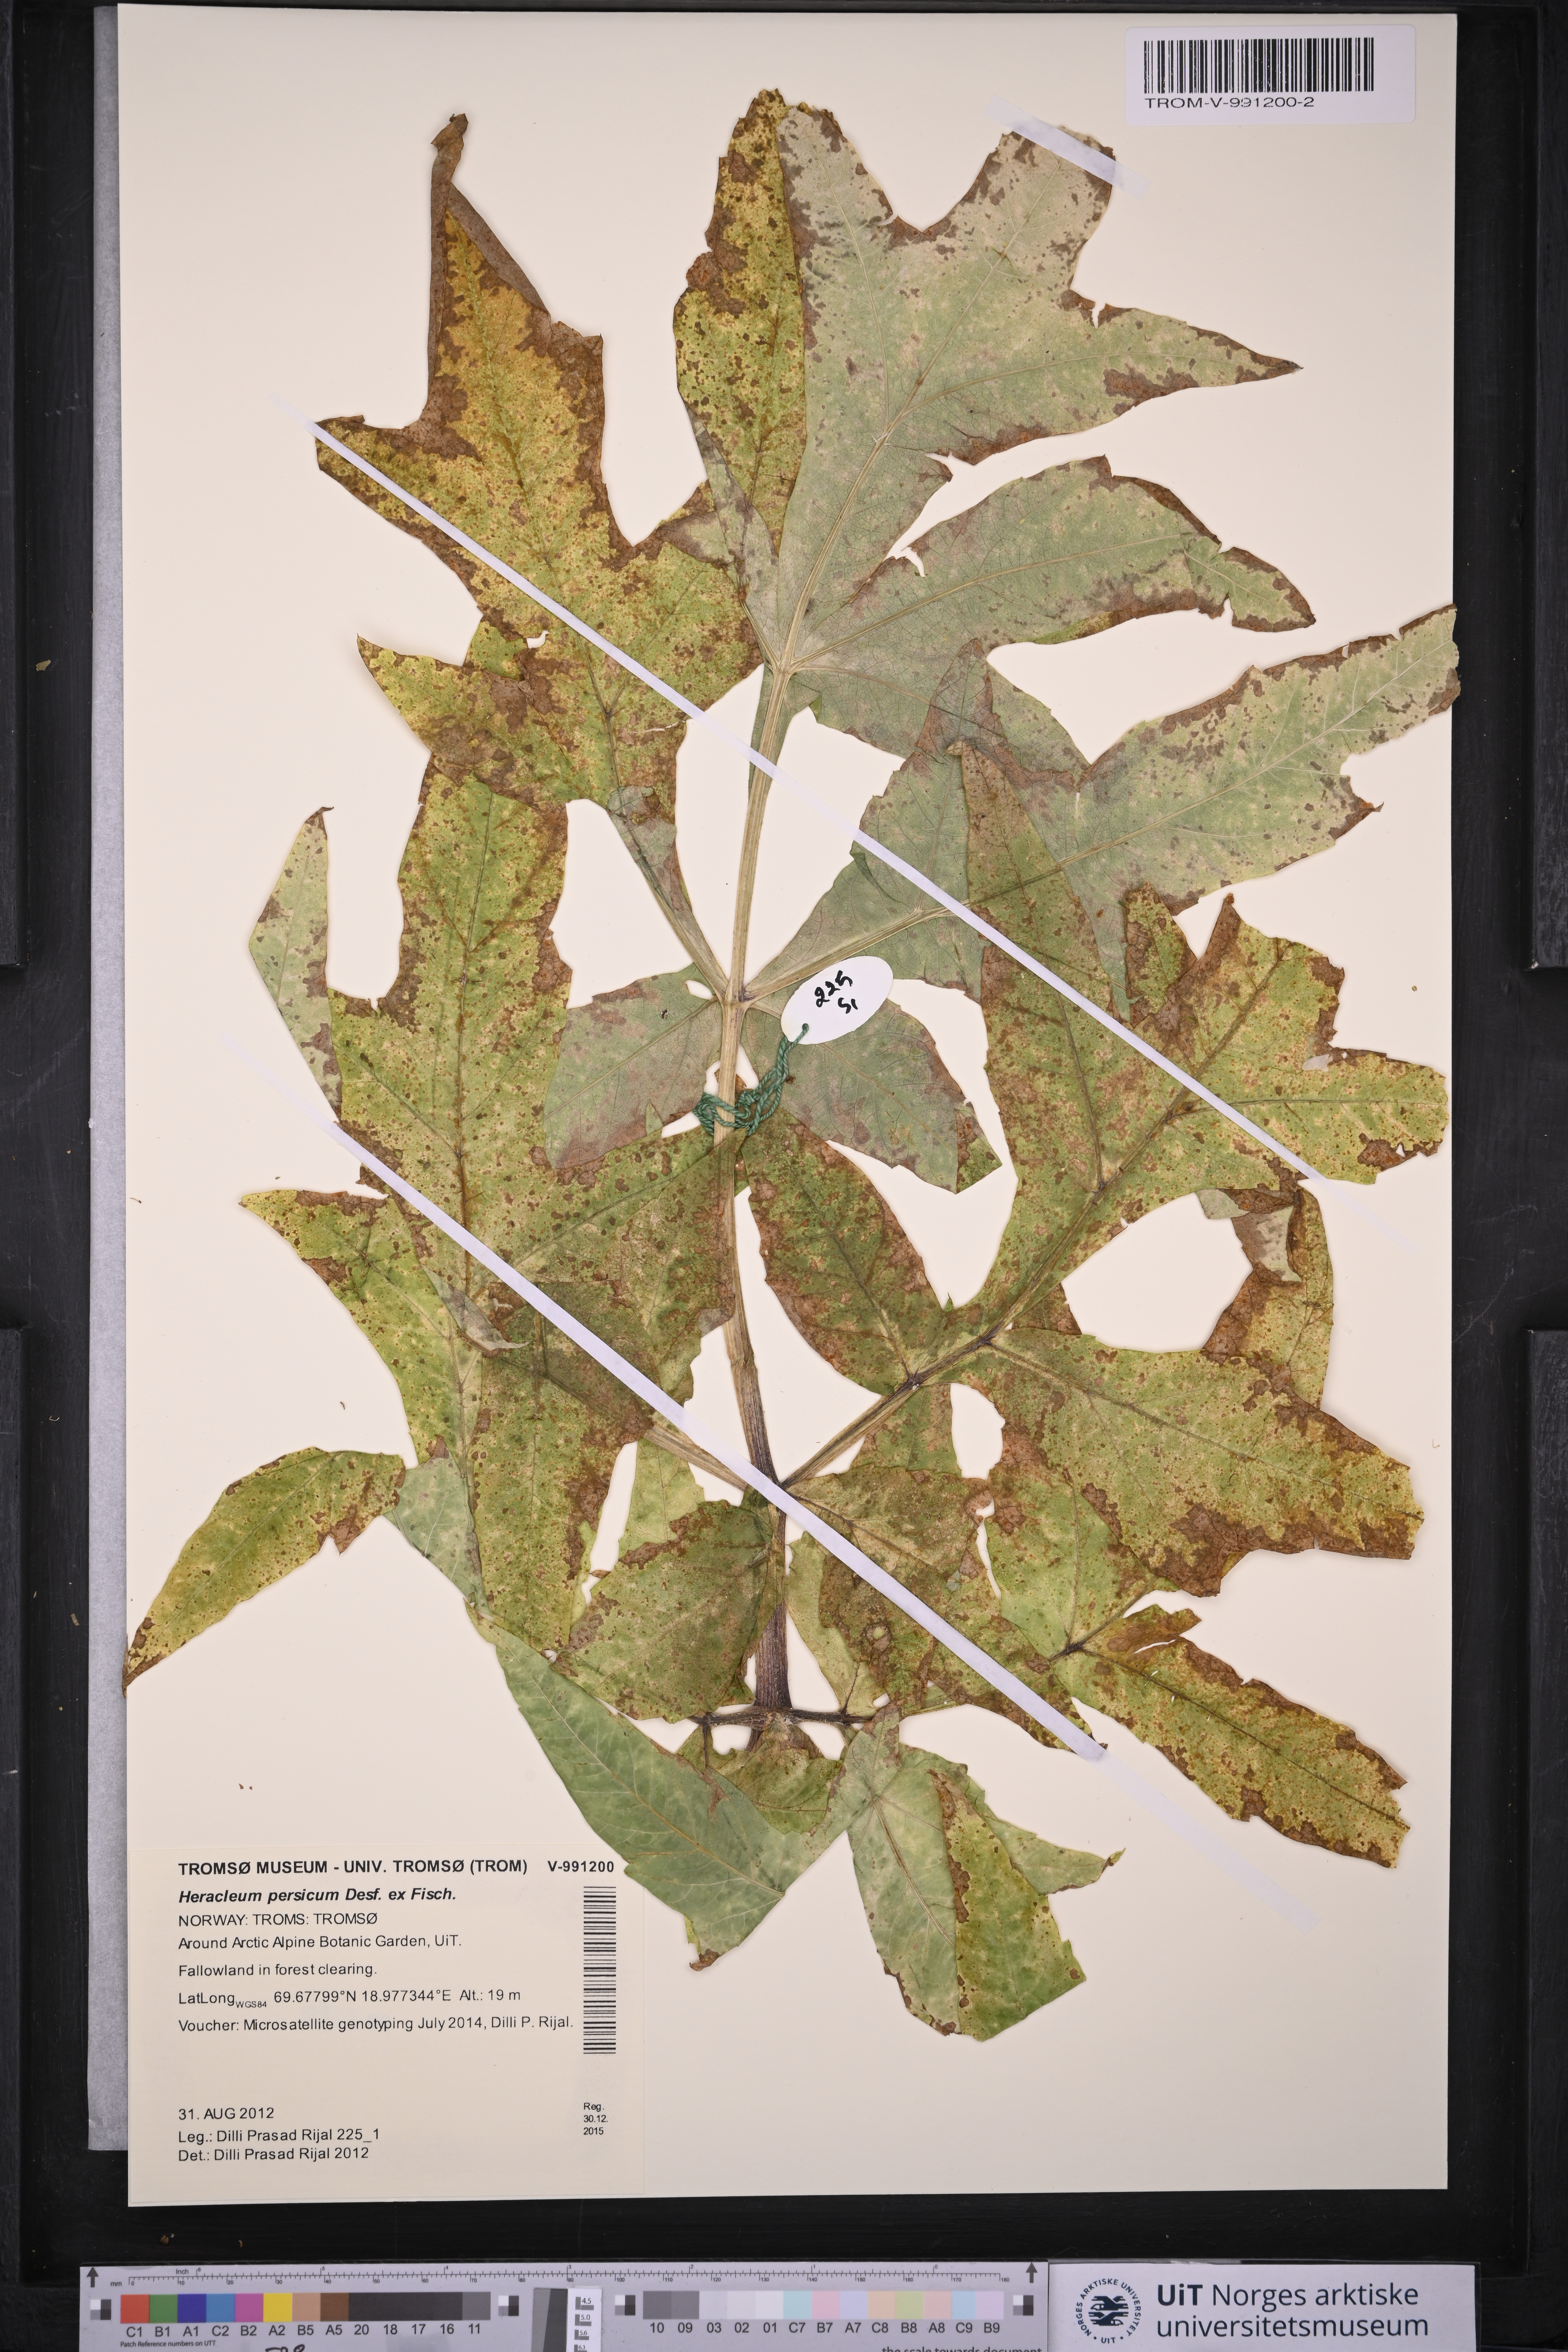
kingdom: Plantae
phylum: Tracheophyta
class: Magnoliopsida
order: Apiales
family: Apiaceae
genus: Heracleum
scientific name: Heracleum persicum
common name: Persian hogweed
